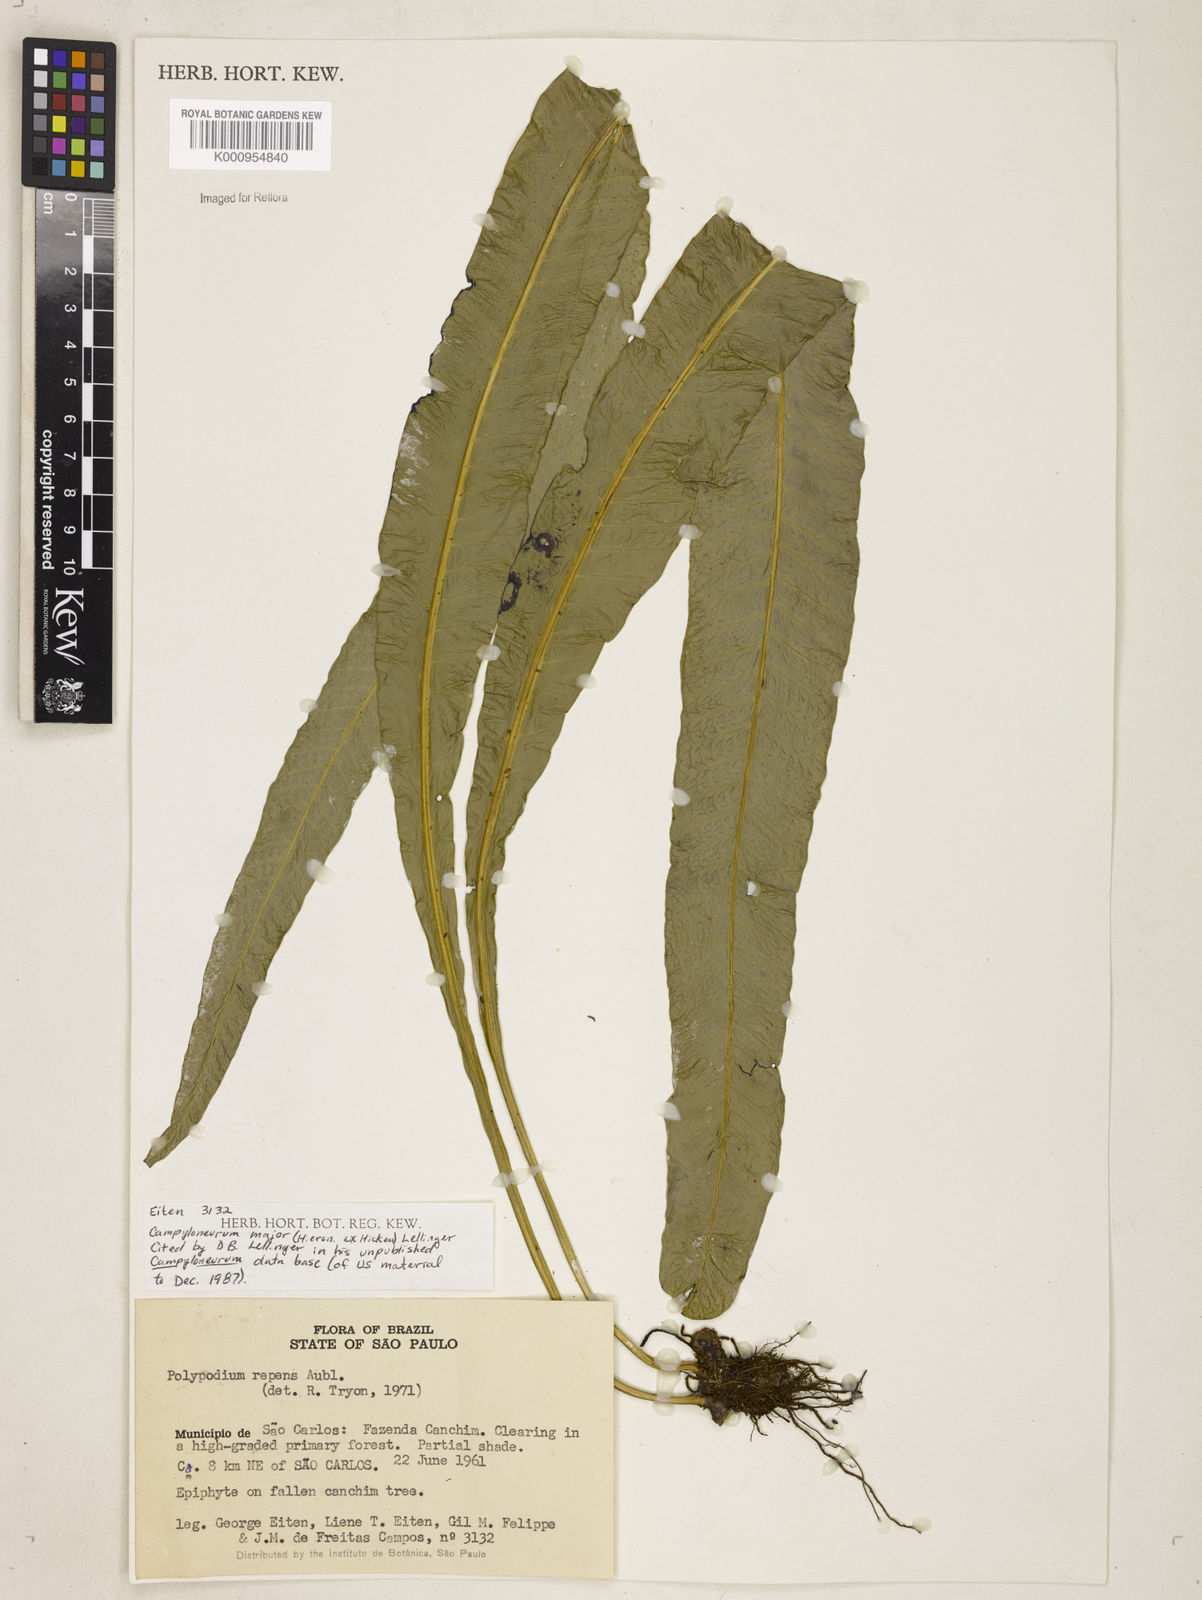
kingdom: Plantae
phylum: Tracheophyta
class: Polypodiopsida
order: Polypodiales
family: Polypodiaceae
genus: Campyloneurum
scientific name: Campyloneurum majus
